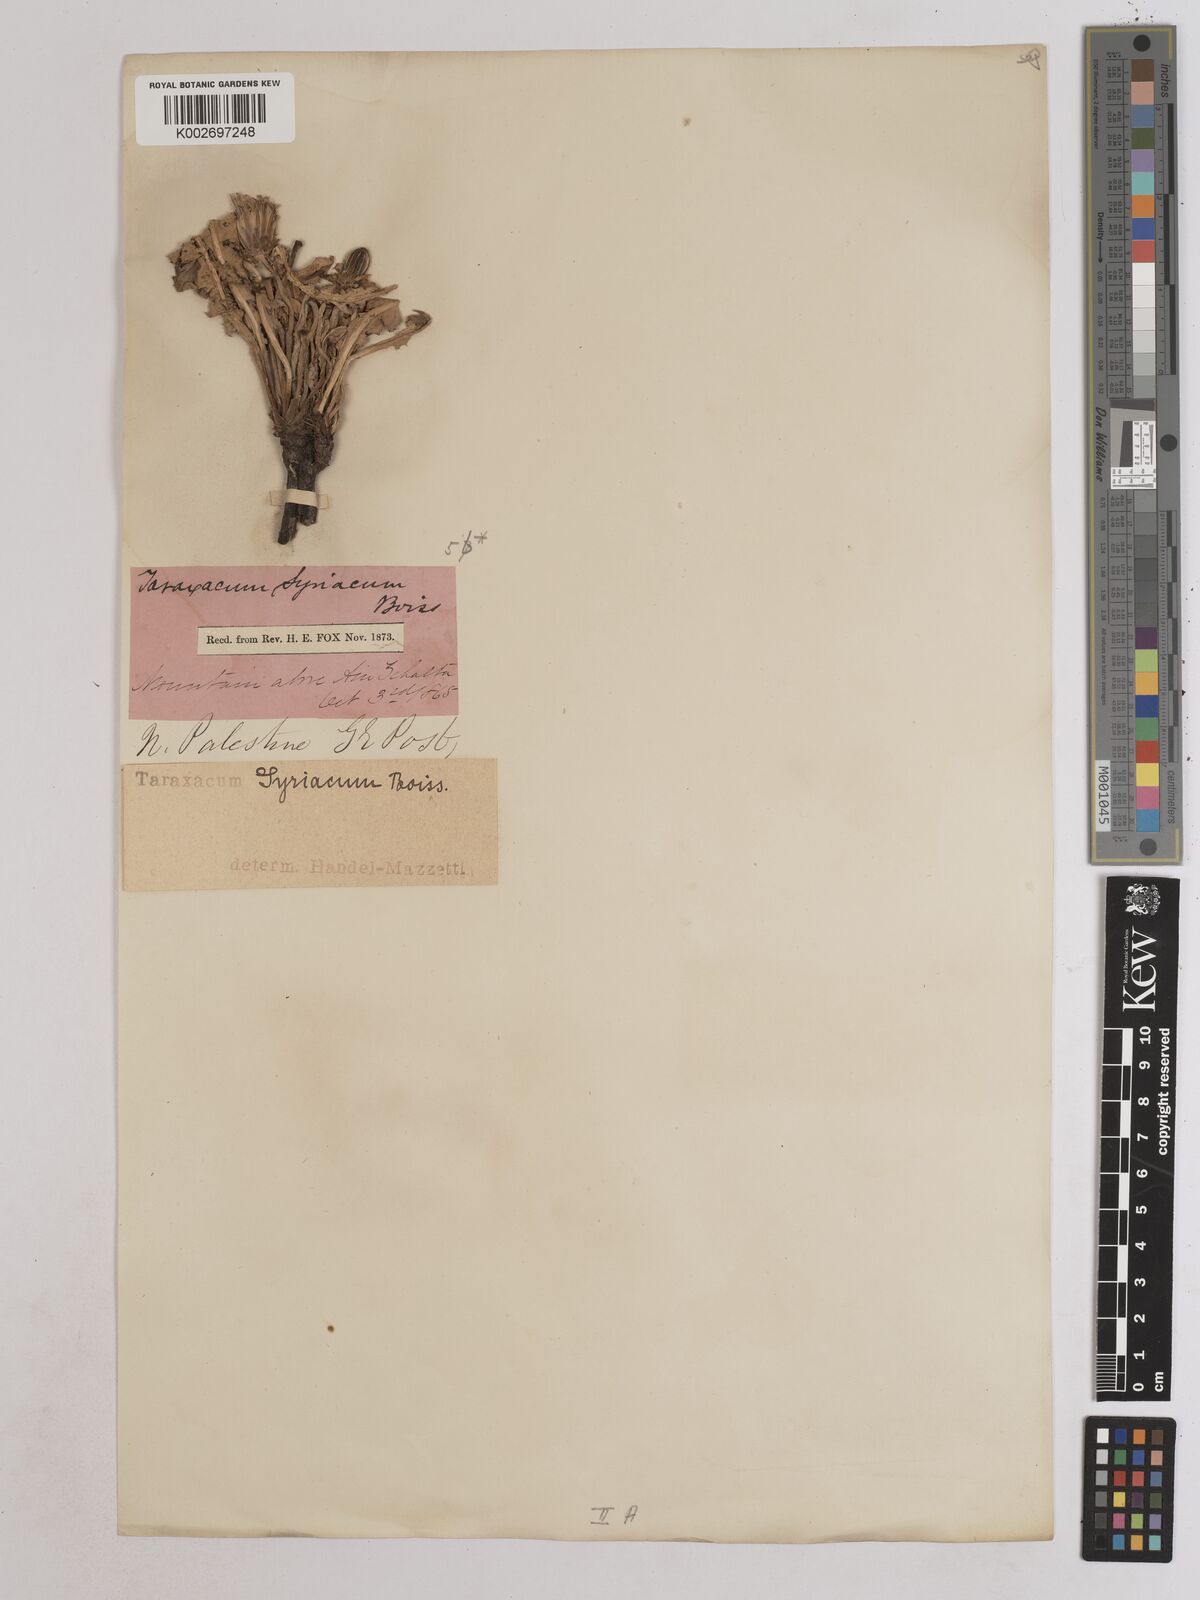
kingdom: Plantae
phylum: Tracheophyta
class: Magnoliopsida
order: Asterales
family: Asteraceae
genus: Taraxacum
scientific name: Taraxacum syriacum
